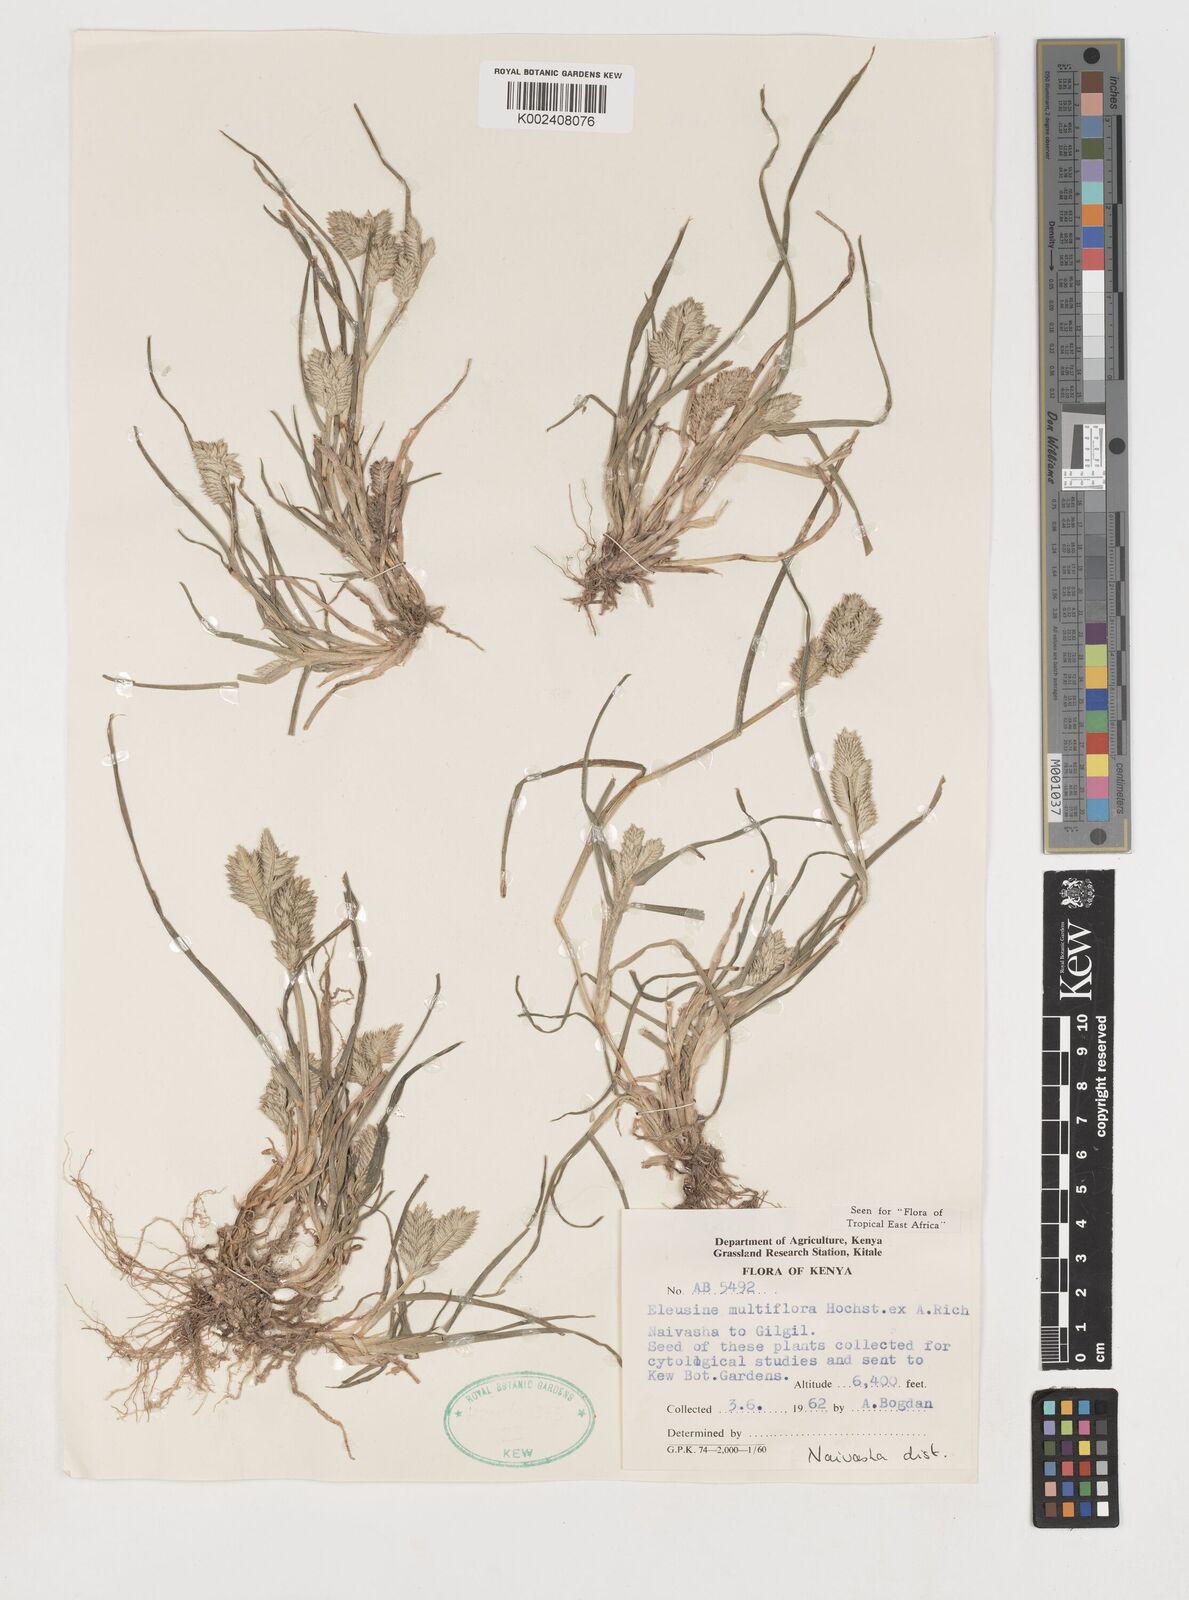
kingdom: Plantae
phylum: Tracheophyta
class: Liliopsida
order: Poales
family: Poaceae
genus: Eleusine
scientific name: Eleusine multiflora
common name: Fat-spiked yard-grass
